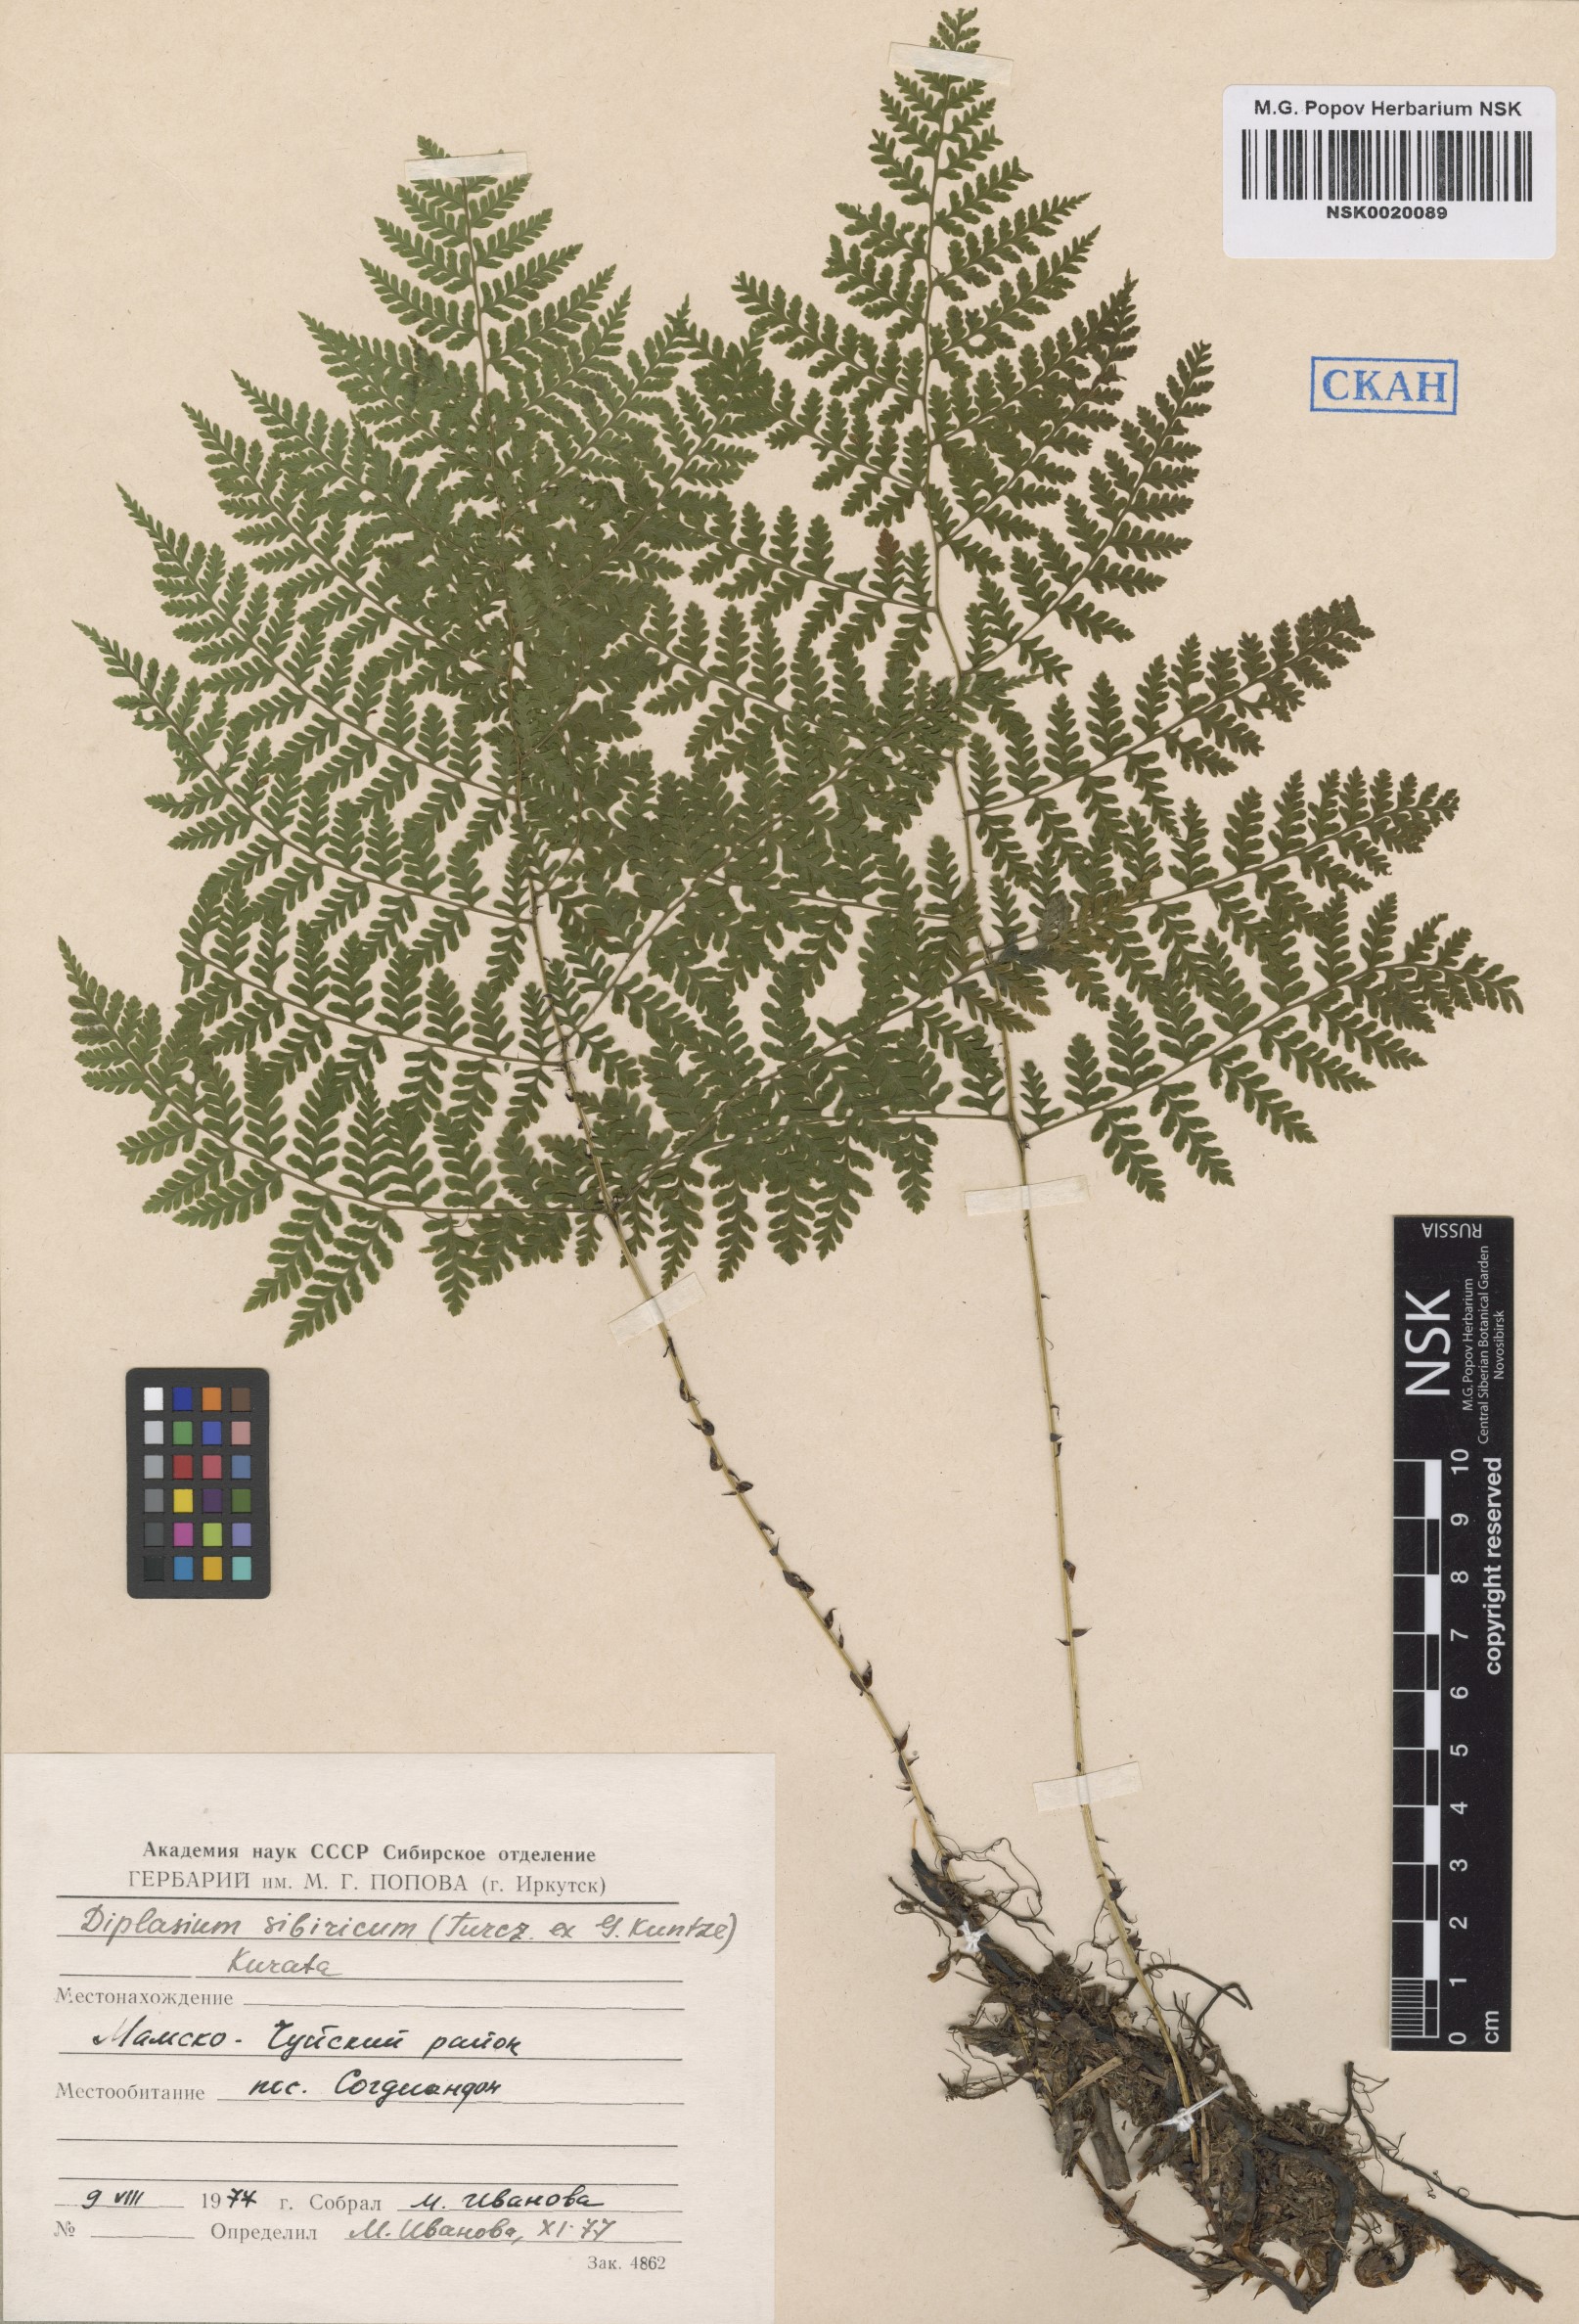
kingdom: Plantae
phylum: Tracheophyta
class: Polypodiopsida
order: Polypodiales
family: Athyriaceae
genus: Diplazium
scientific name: Diplazium sibiricum
